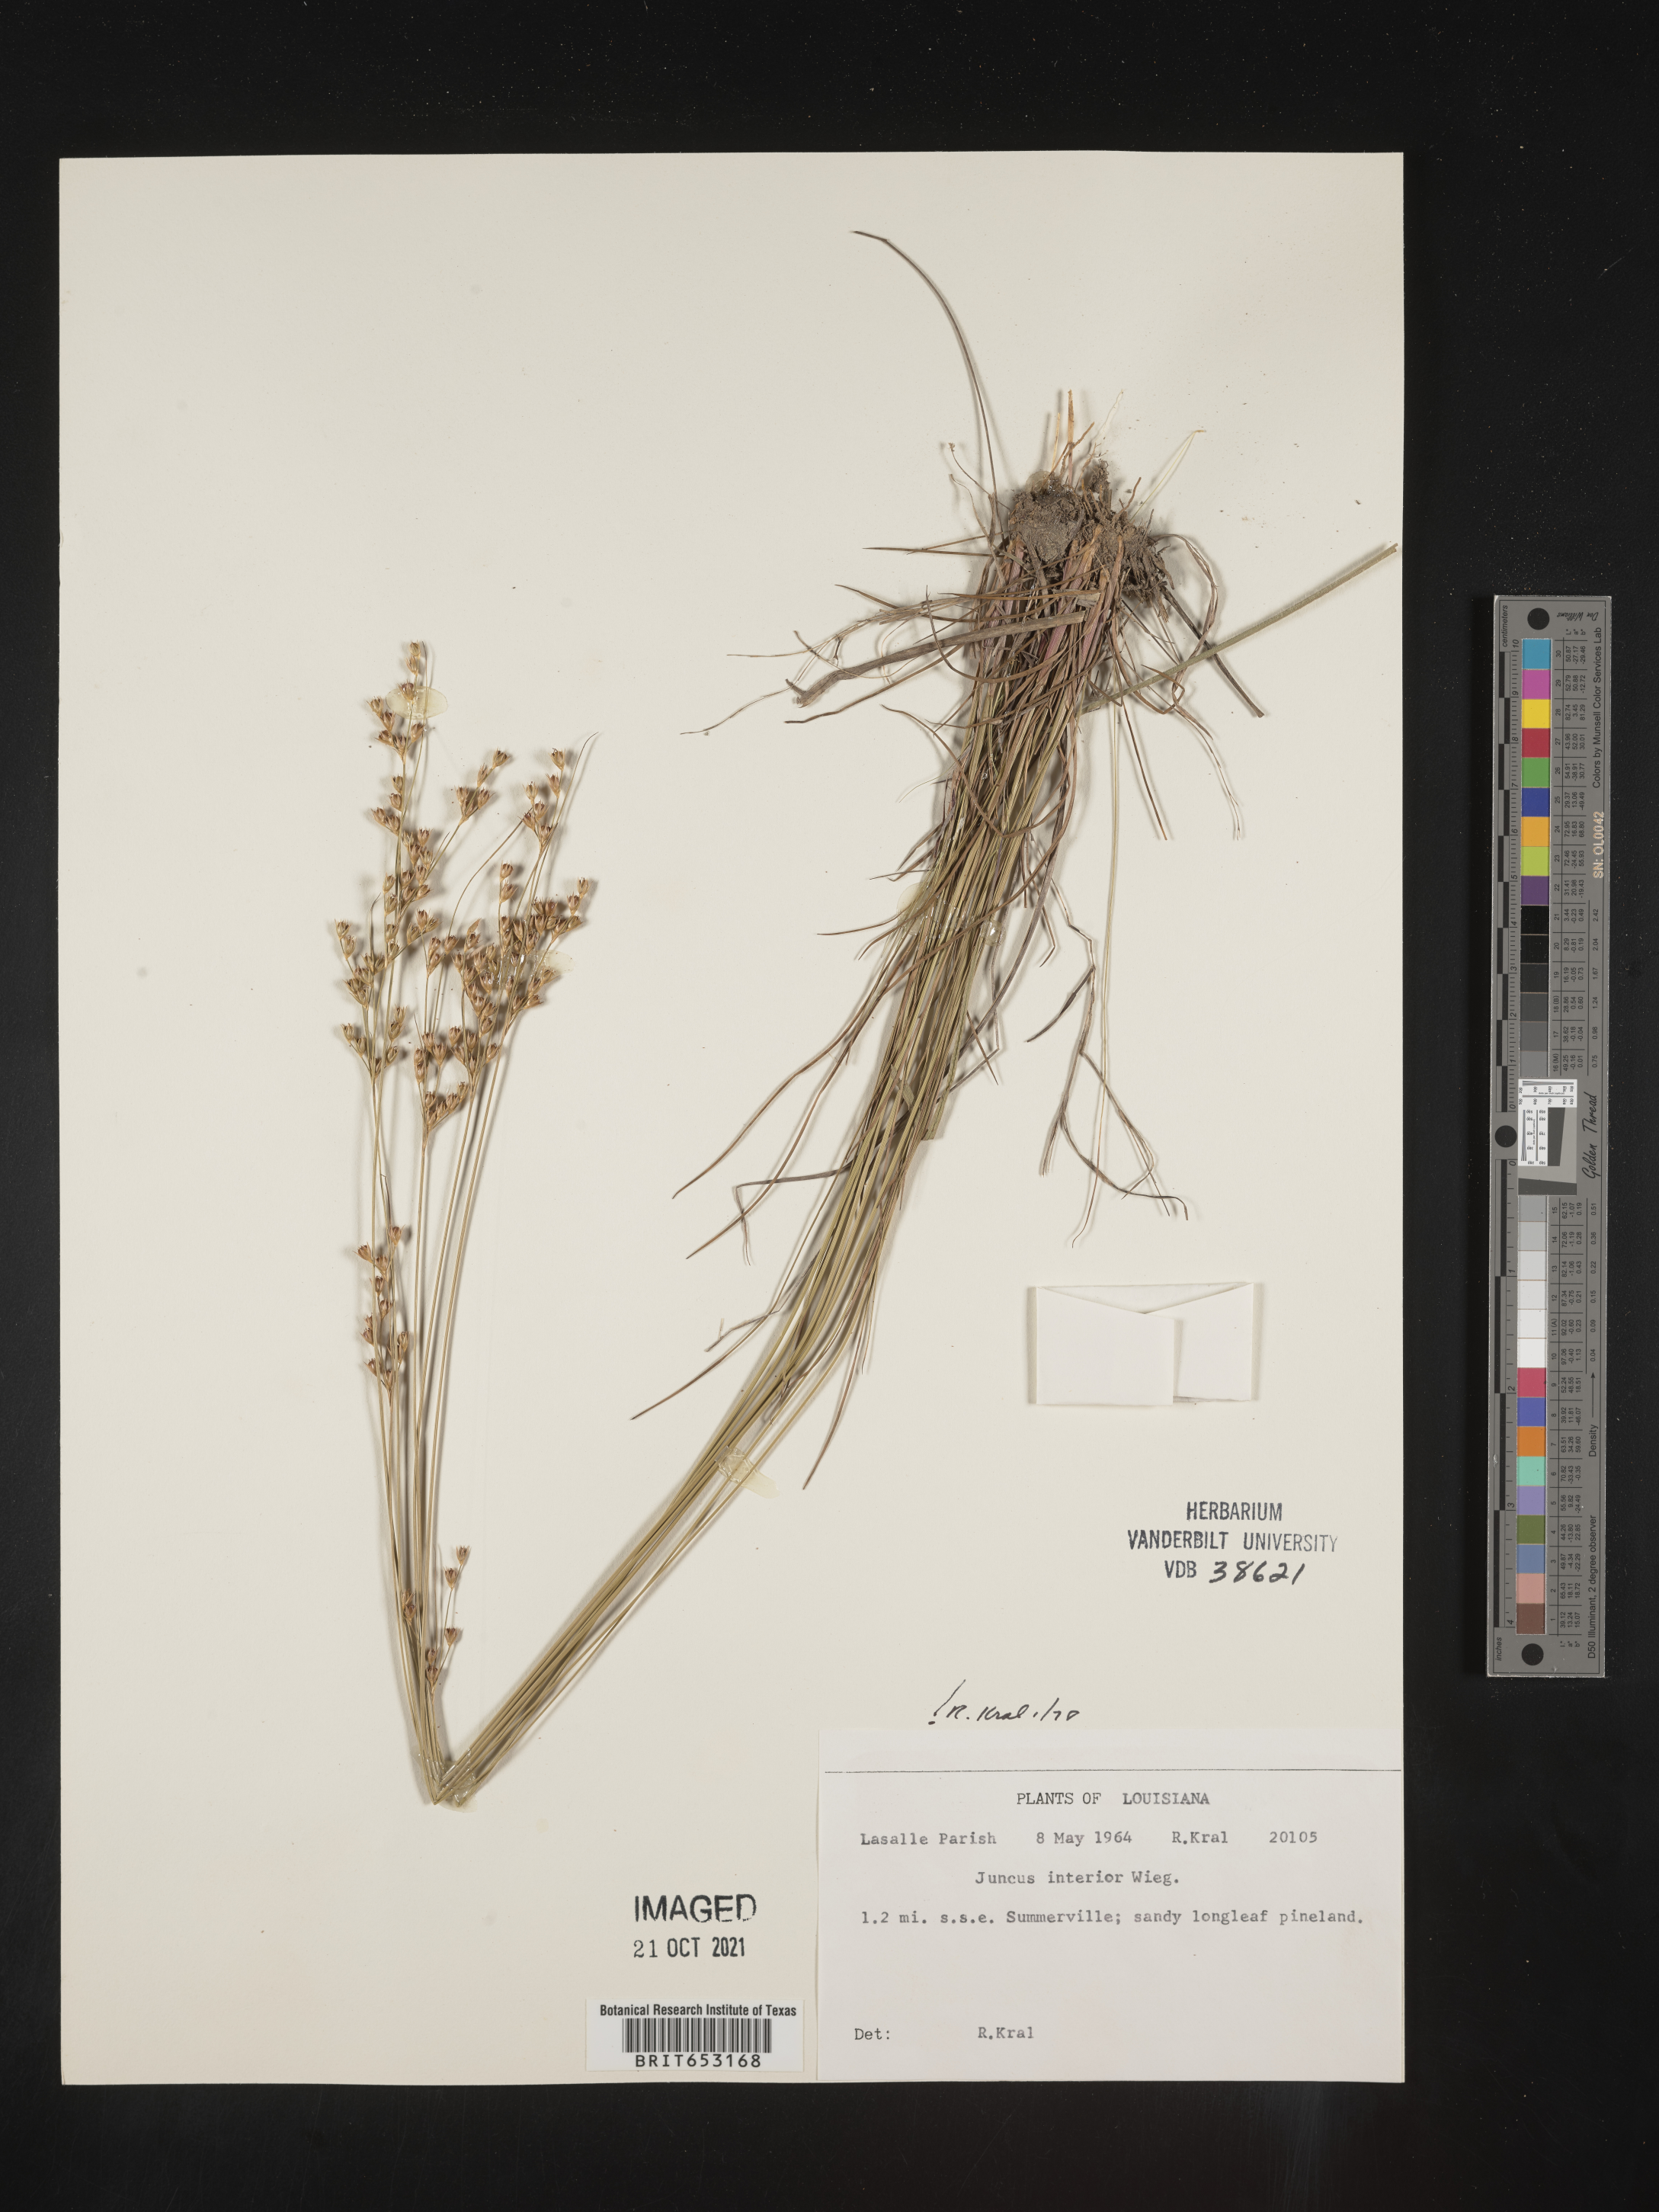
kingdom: Plantae
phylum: Tracheophyta
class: Liliopsida
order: Poales
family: Juncaceae
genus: Juncus
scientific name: Juncus interior
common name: Interior rush
